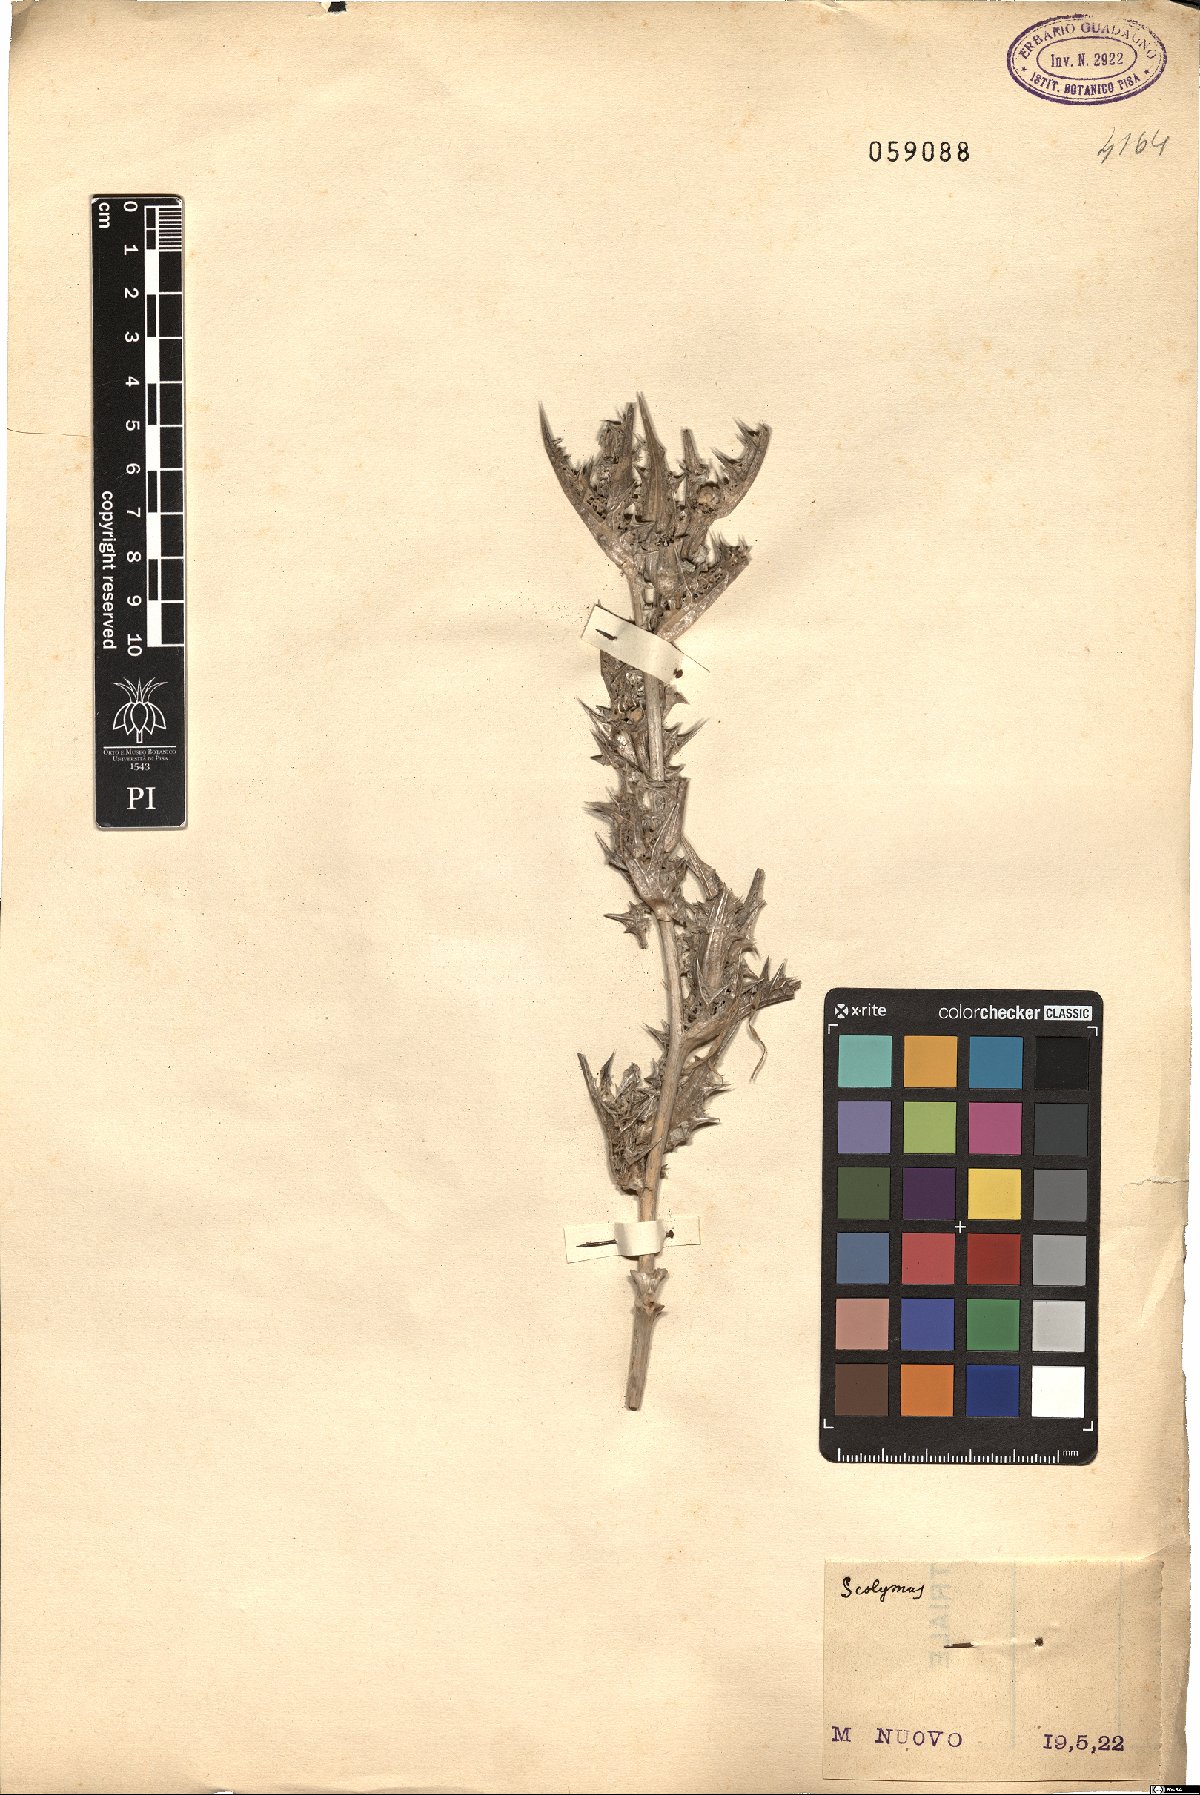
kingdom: Plantae
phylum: Tracheophyta
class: Magnoliopsida
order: Asterales
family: Asteraceae
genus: Scolymus
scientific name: Scolymus
